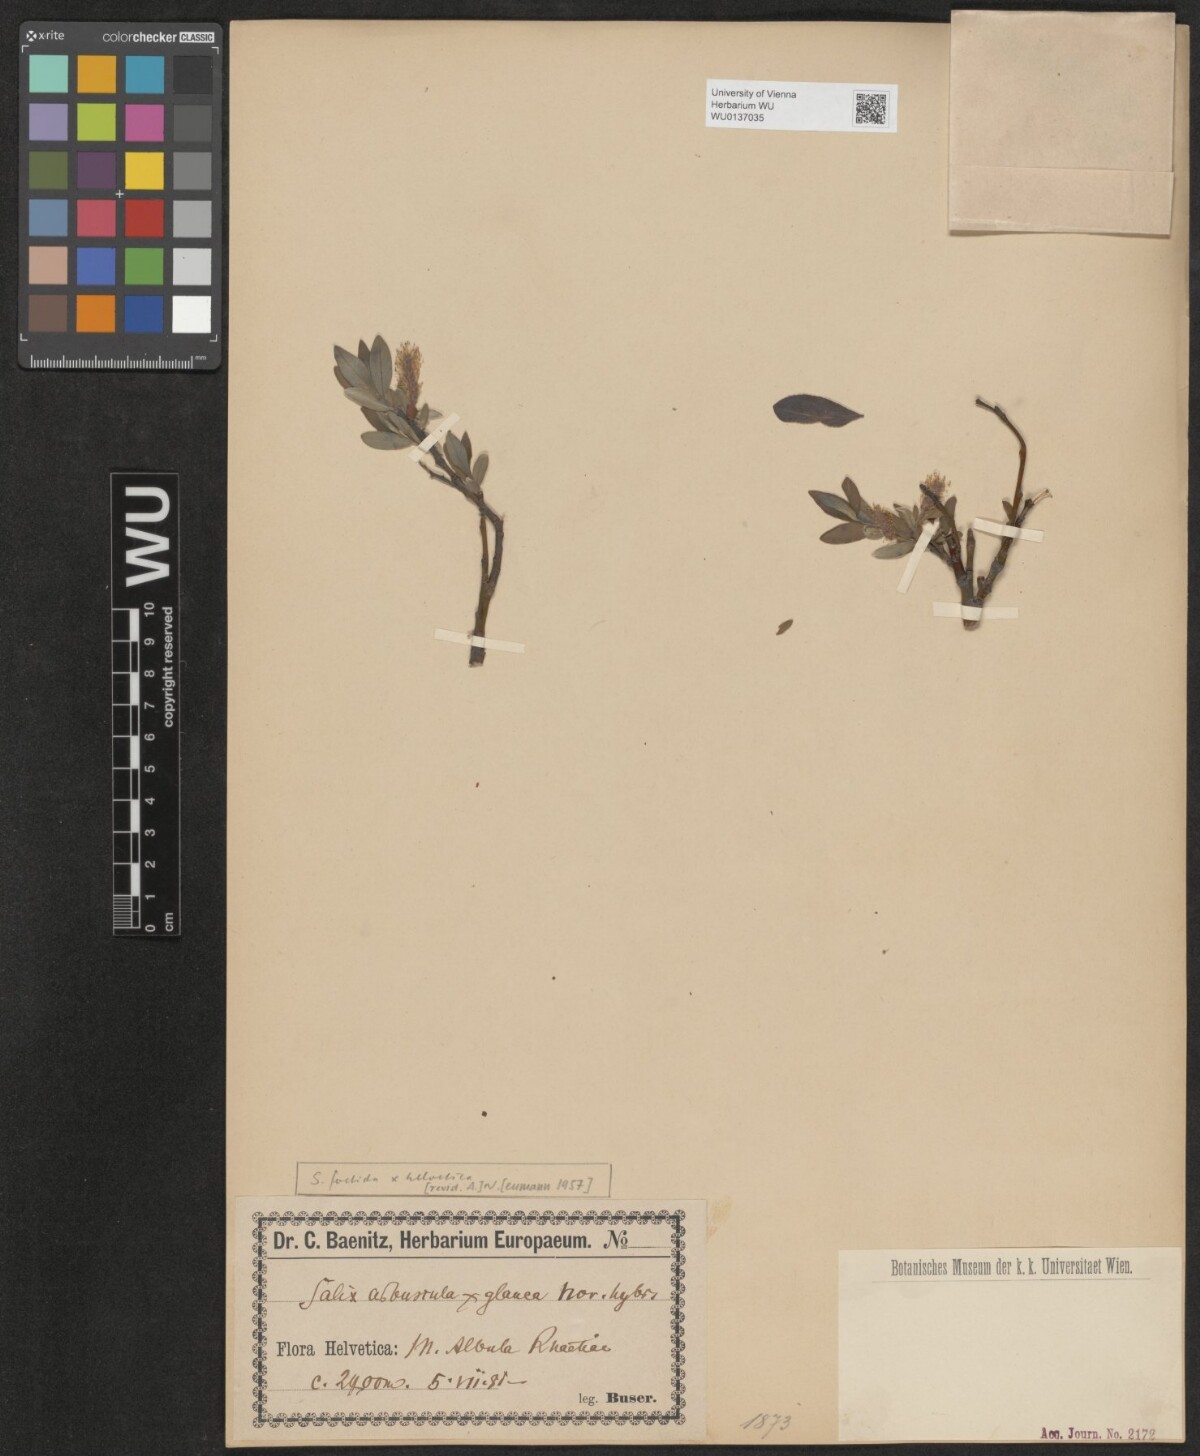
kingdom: Plantae
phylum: Tracheophyta
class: Magnoliopsida
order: Malpighiales
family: Salicaceae
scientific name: Salicaceae
